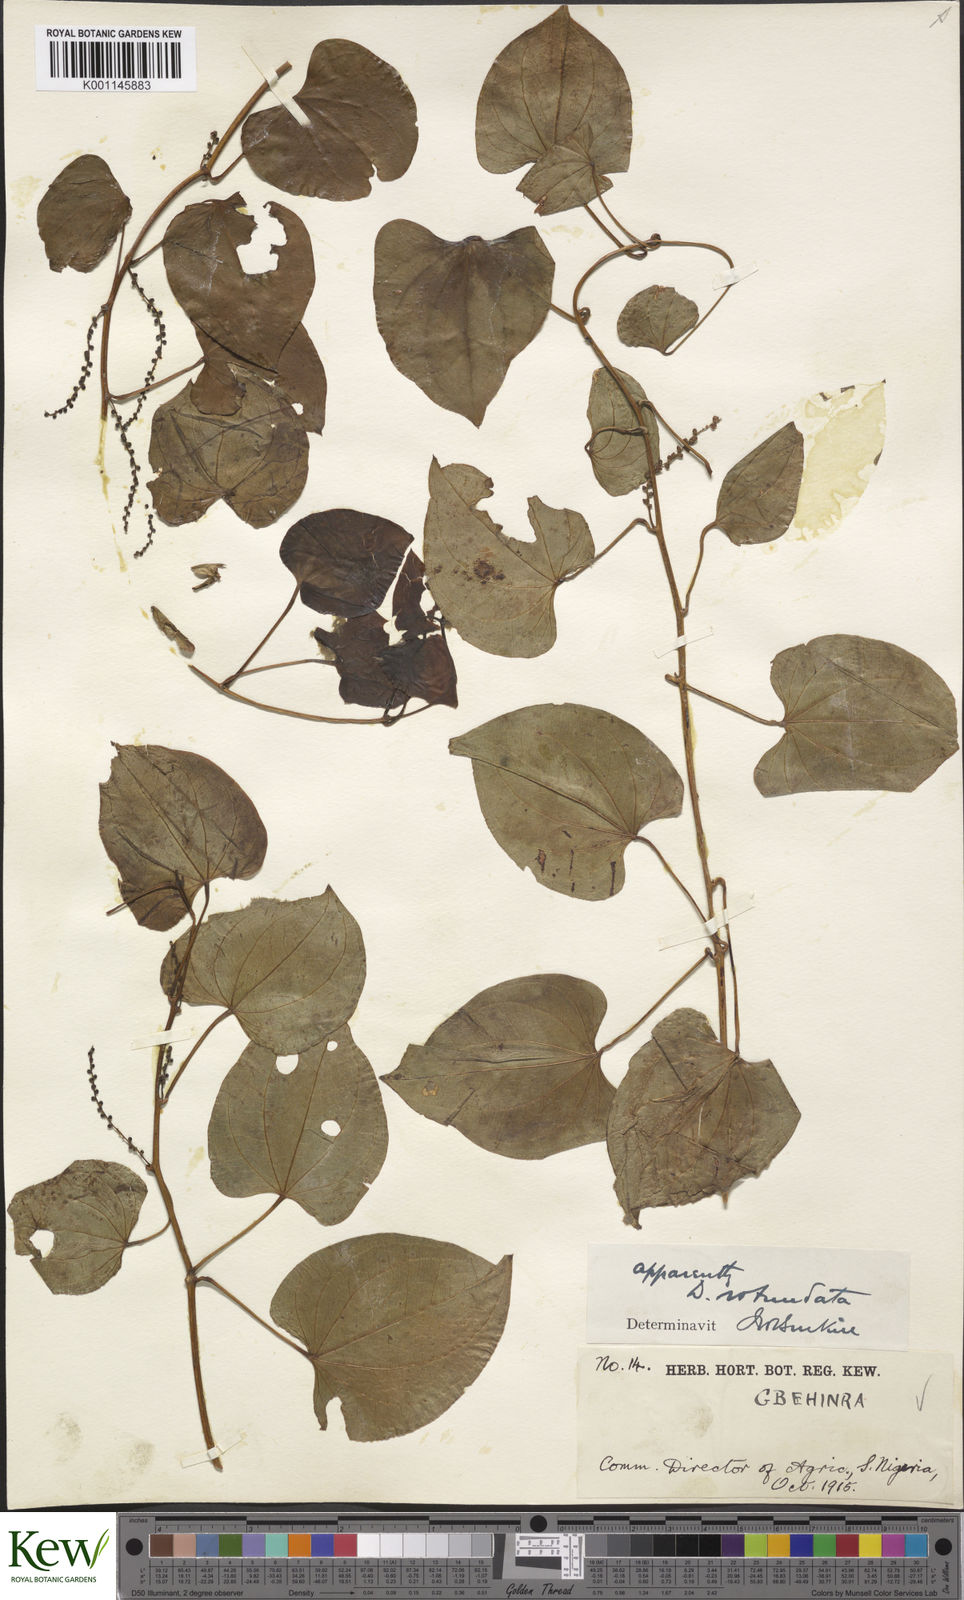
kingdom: Plantae
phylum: Tracheophyta
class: Liliopsida
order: Dioscoreales
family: Dioscoreaceae
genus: Dioscorea
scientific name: Dioscorea cayenensis
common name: Attoto yam
